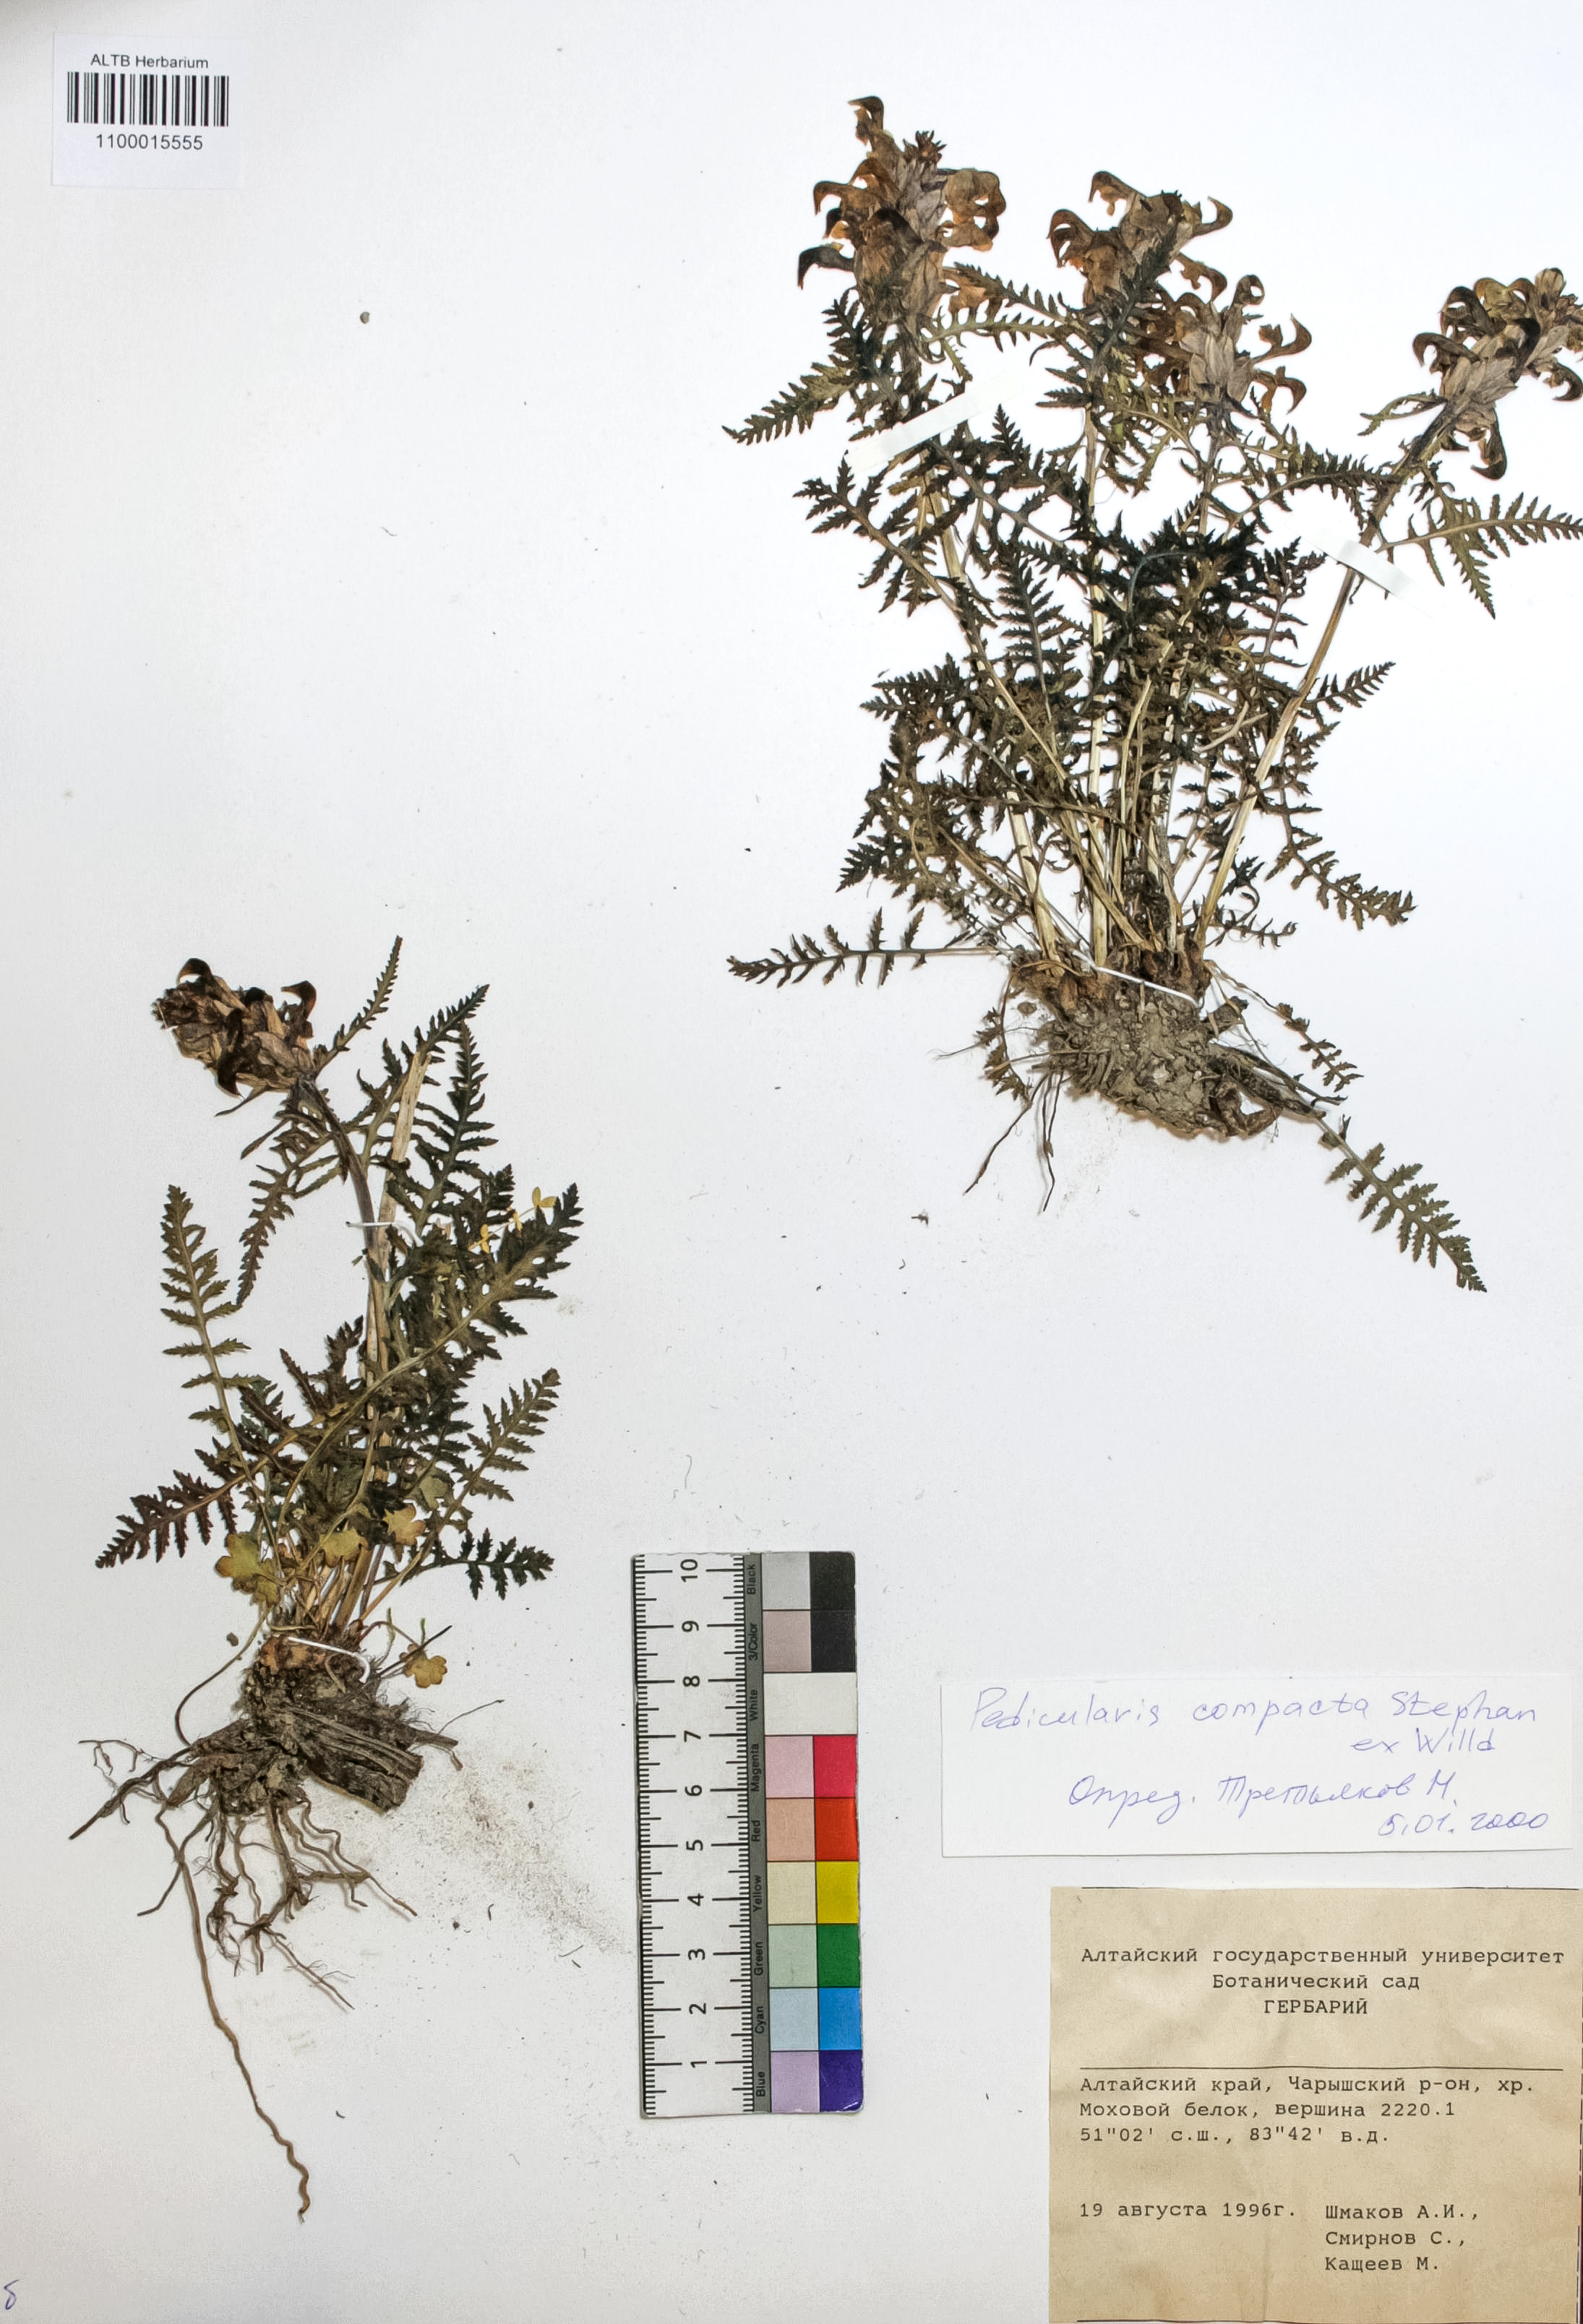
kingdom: Plantae
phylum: Tracheophyta
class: Magnoliopsida
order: Lamiales
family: Orobanchaceae
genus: Pedicularis
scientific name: Pedicularis compacta
